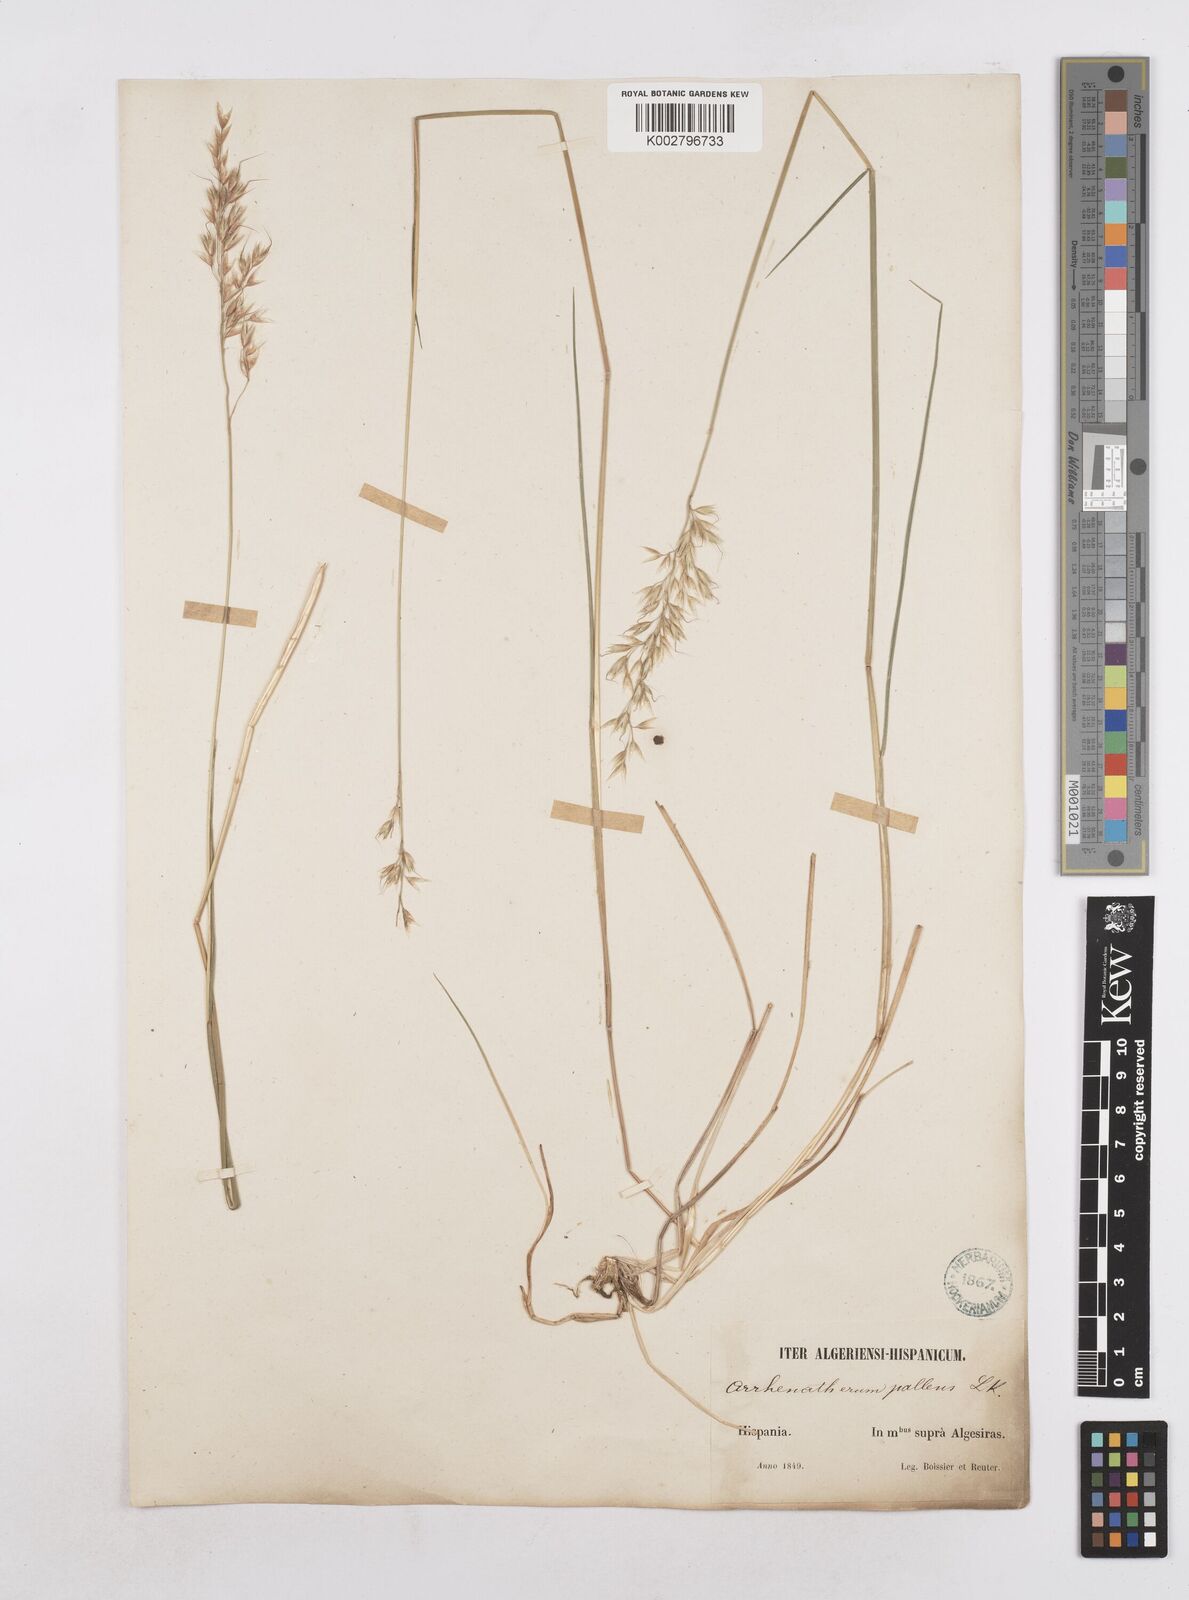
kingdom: Plantae
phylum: Tracheophyta
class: Liliopsida
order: Poales
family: Poaceae
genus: Arrhenatherum
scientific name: Arrhenatherum longifolium
